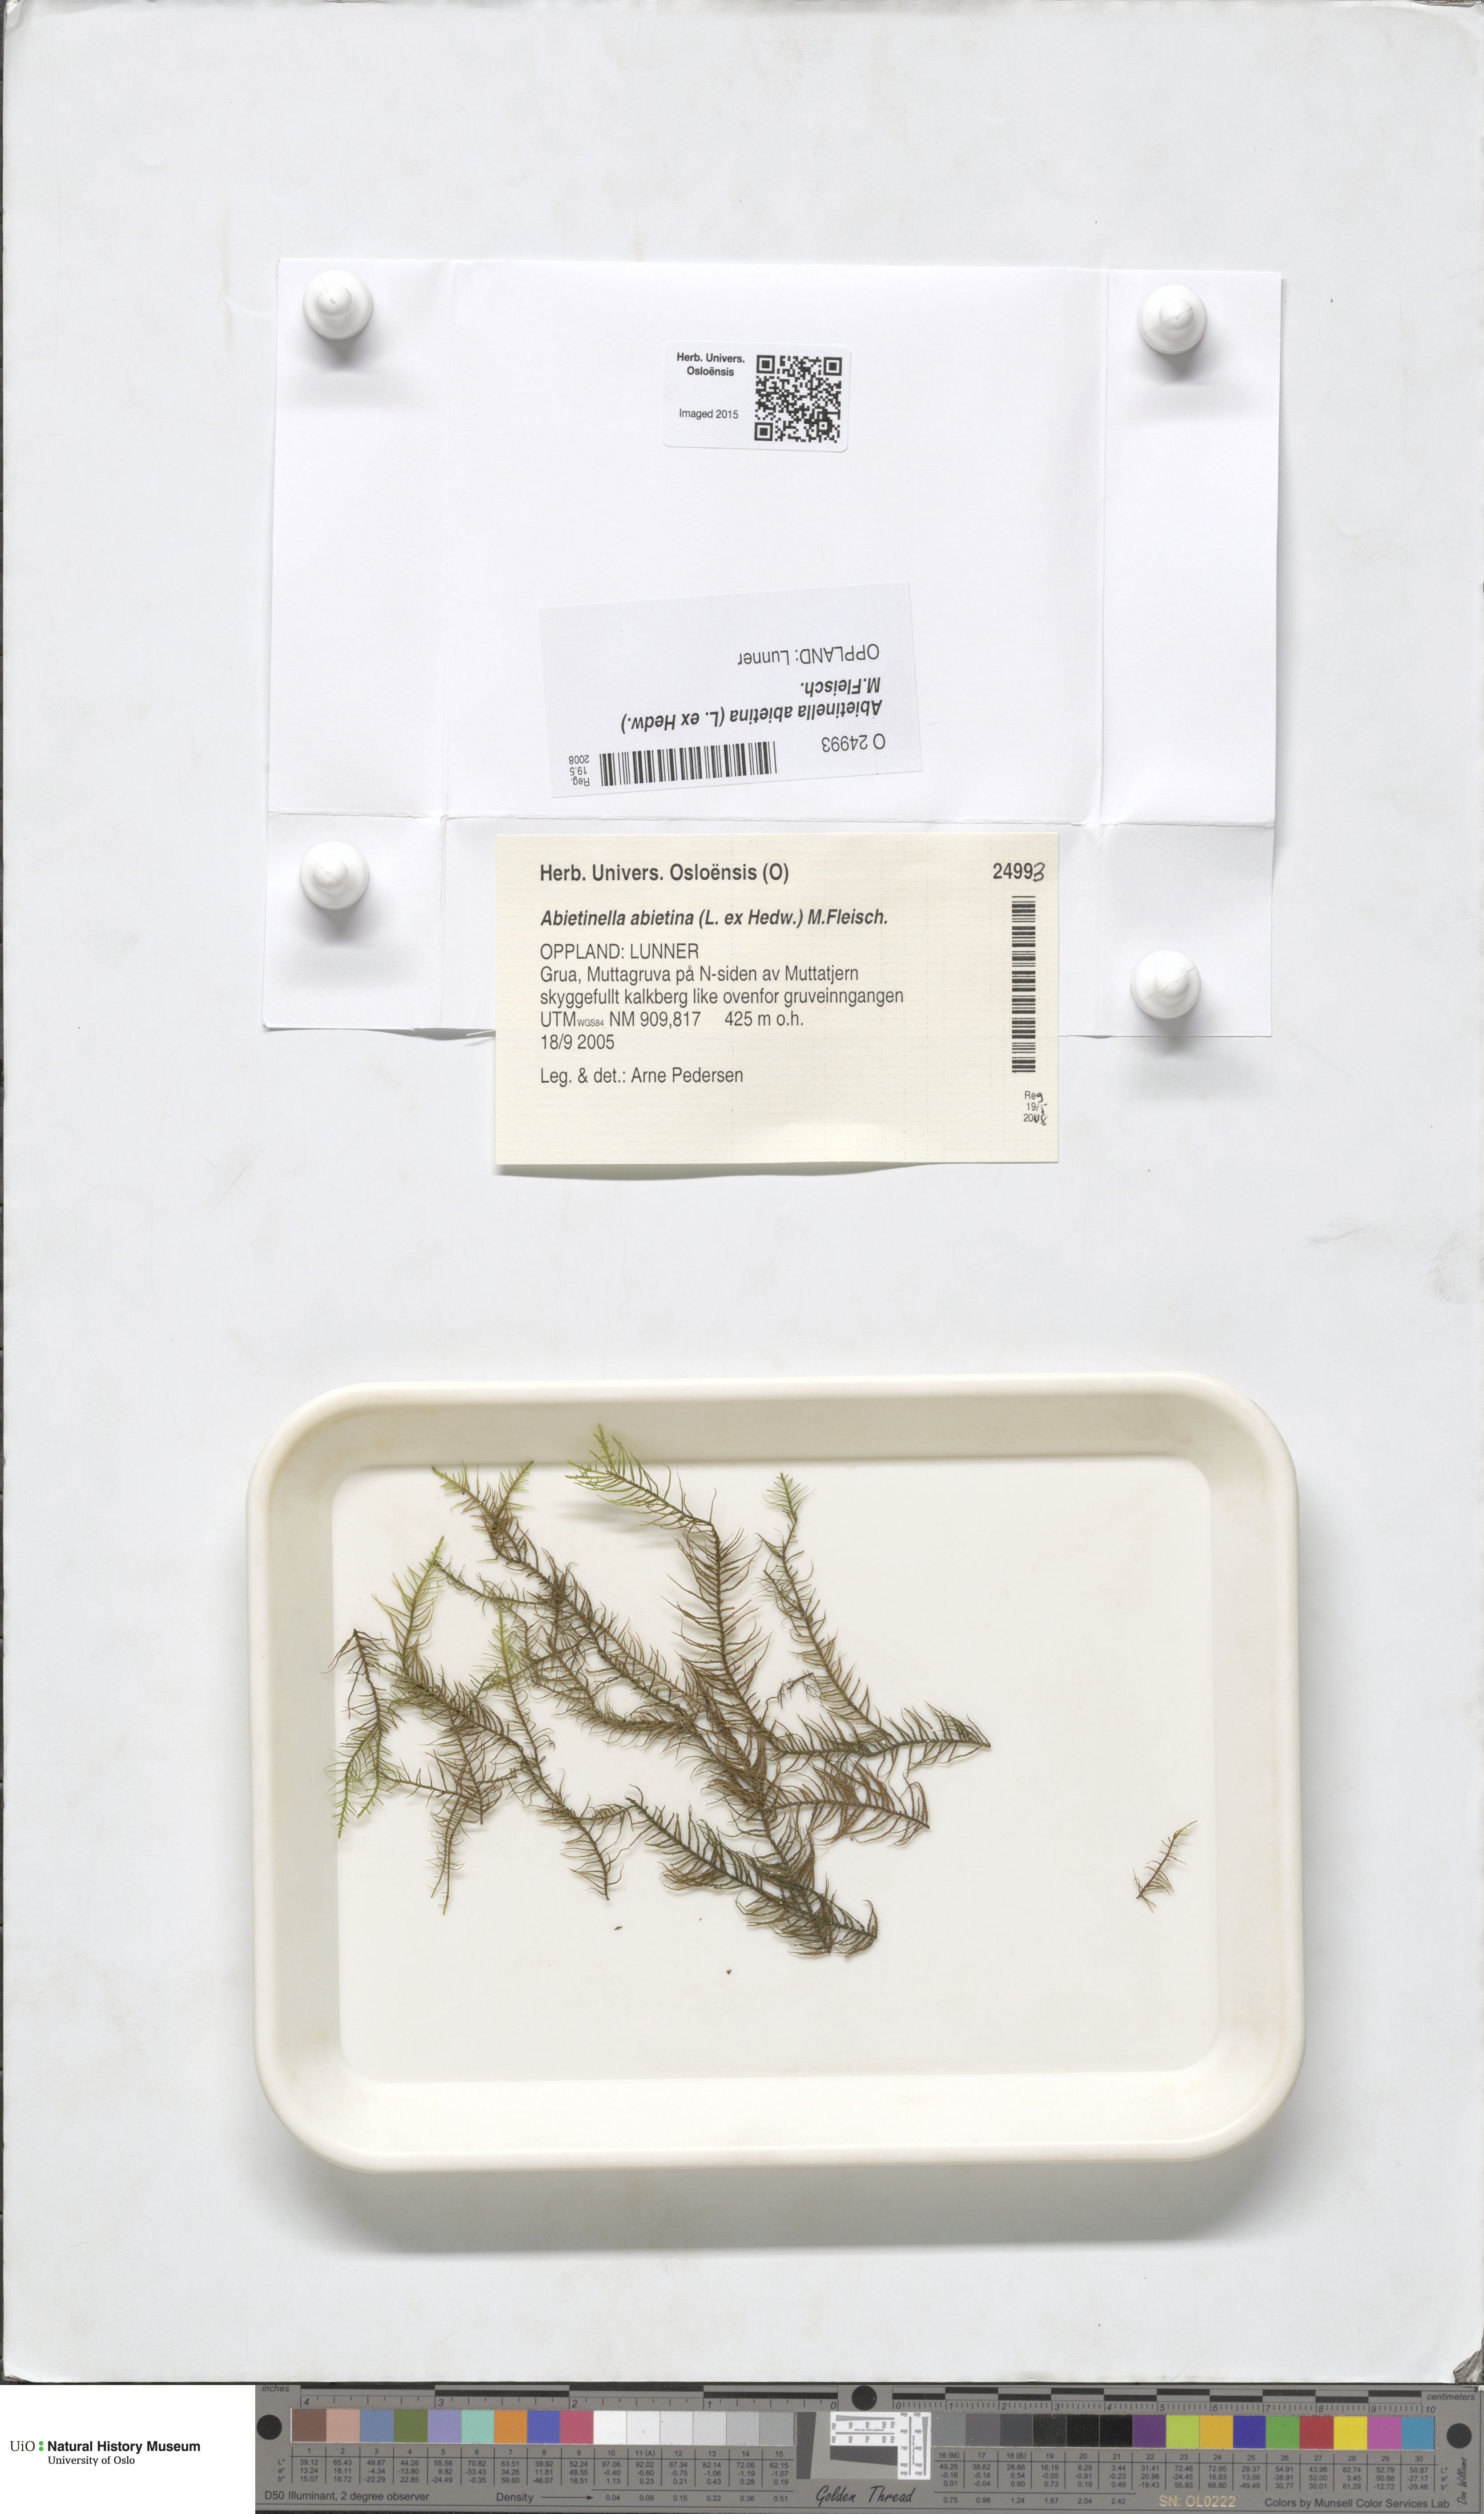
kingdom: Plantae
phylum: Bryophyta
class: Bryopsida
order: Hypnales
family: Thuidiaceae
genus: Abietinella
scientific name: Abietinella abietina
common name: Wiry fern moss
